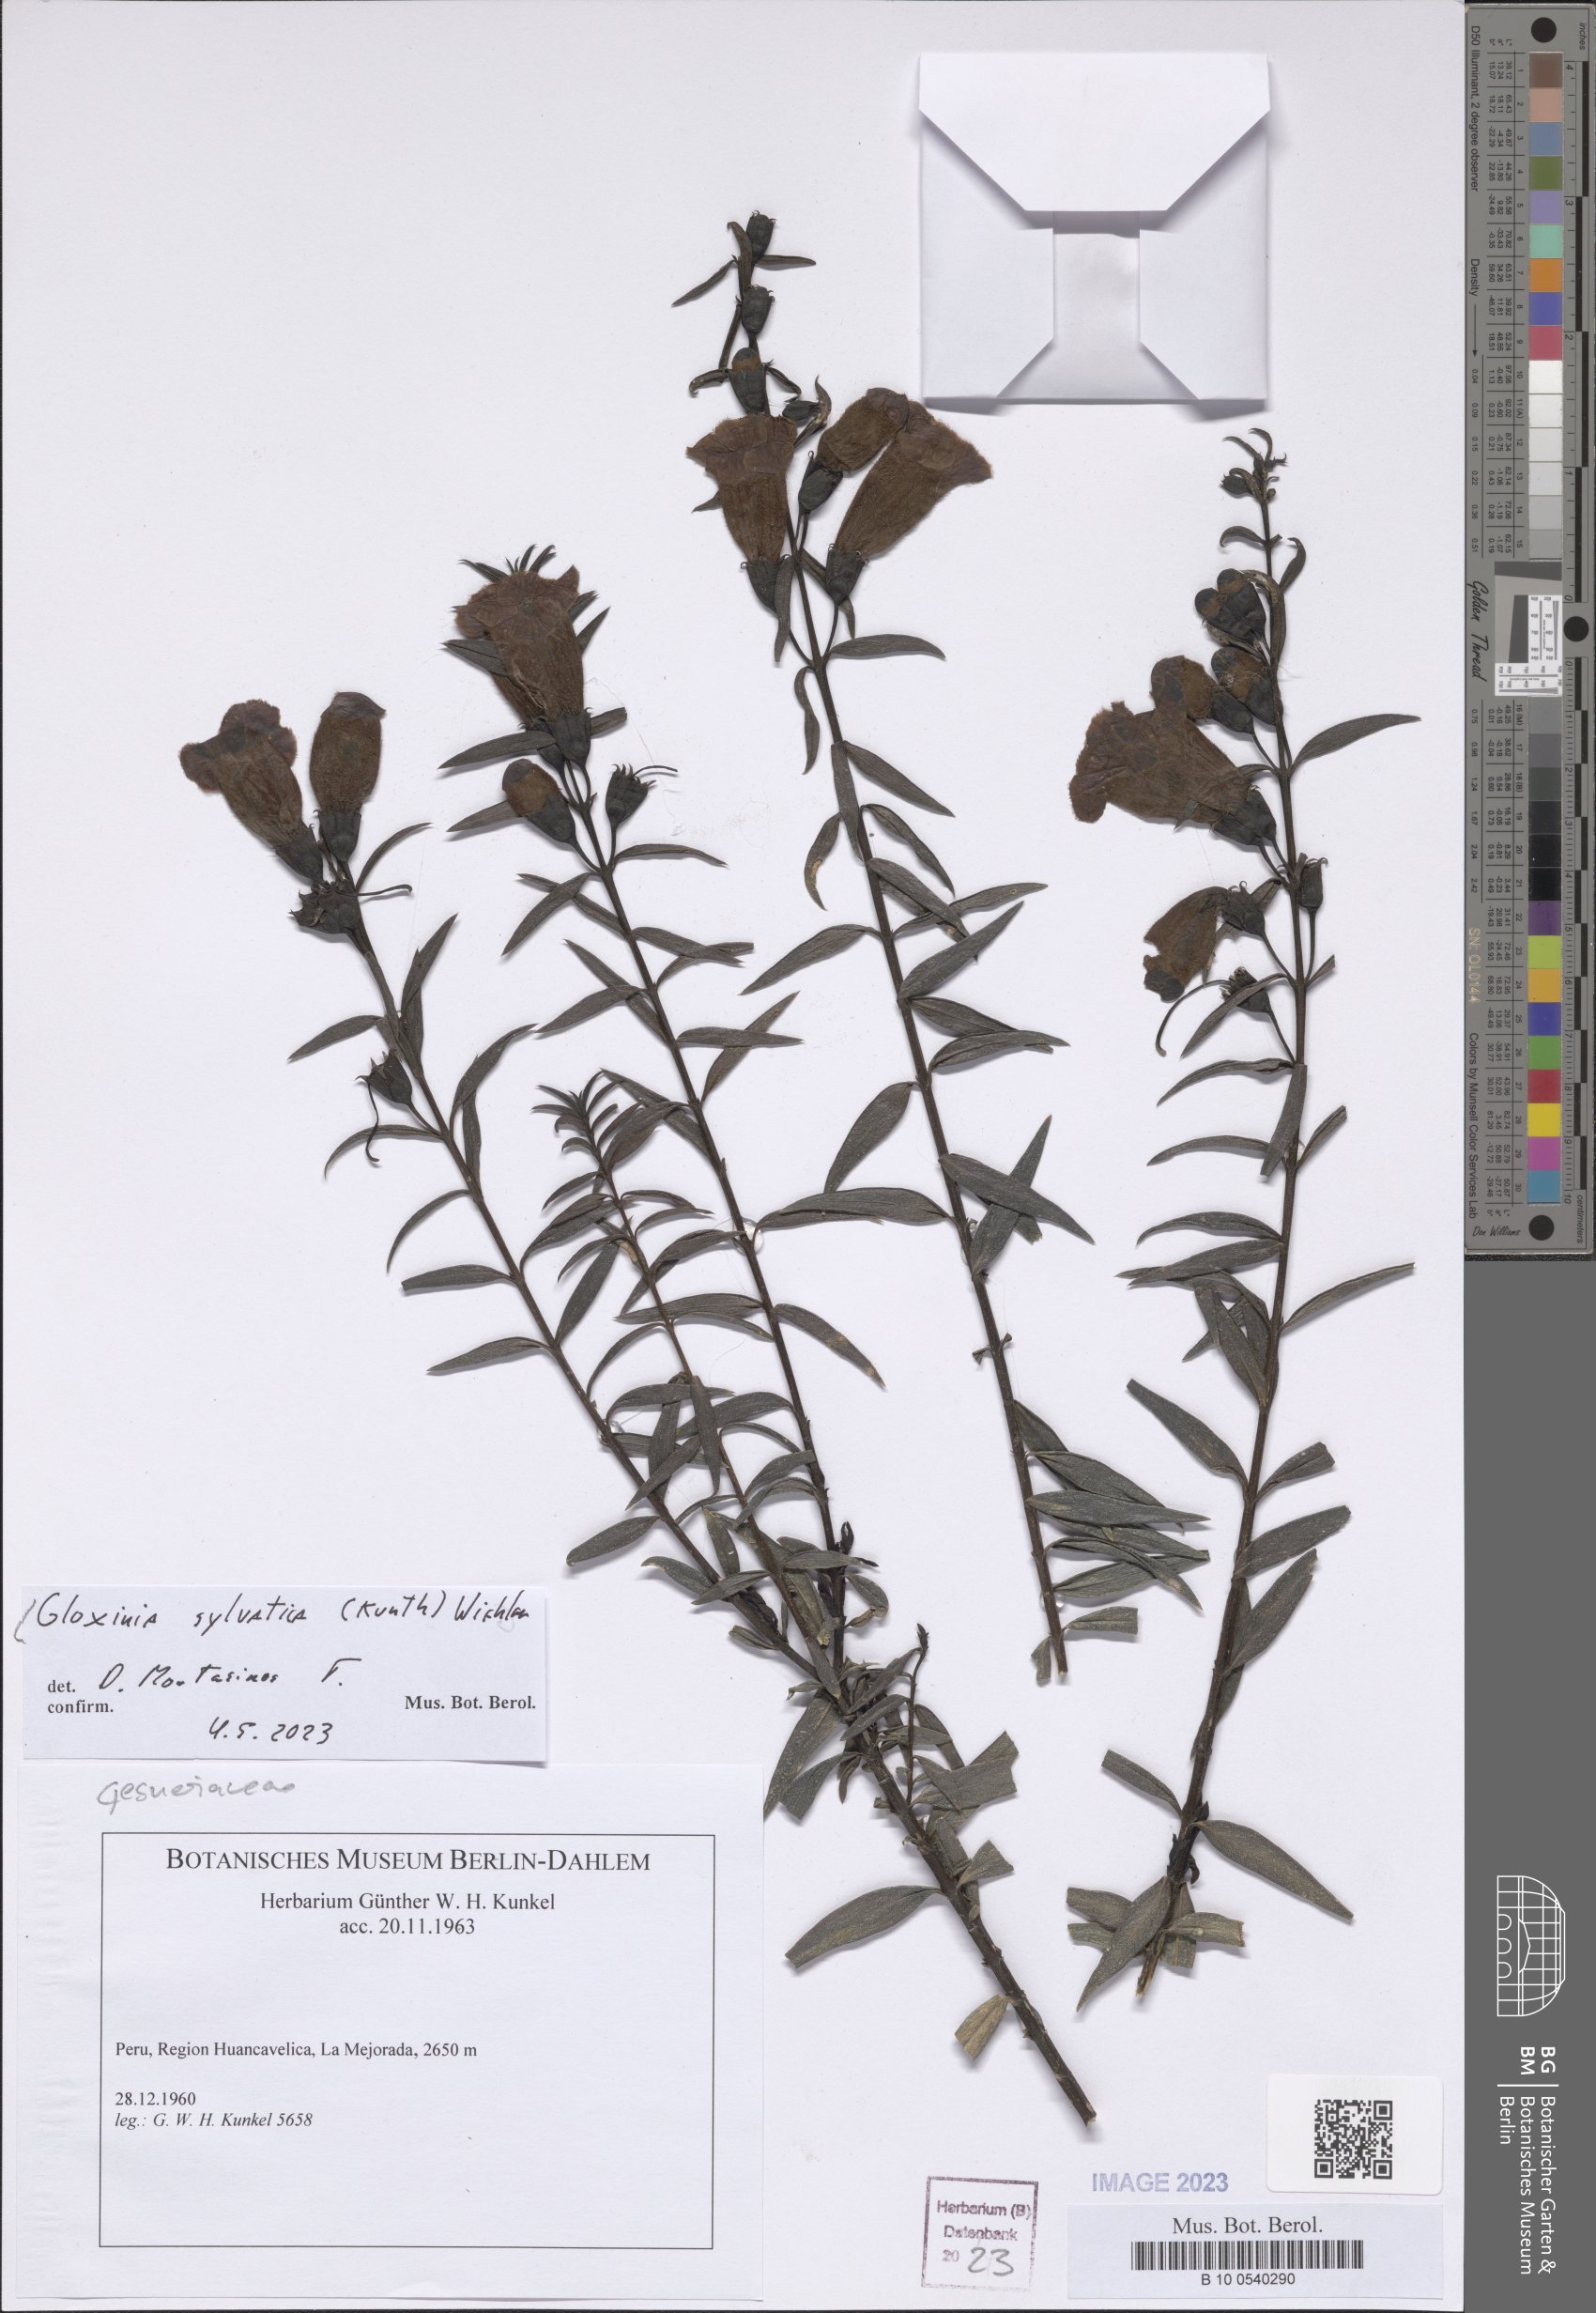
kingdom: Plantae
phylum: Tracheophyta
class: Magnoliopsida
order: Lamiales
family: Gesneriaceae
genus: Seemannia
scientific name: Seemannia sylvatica
